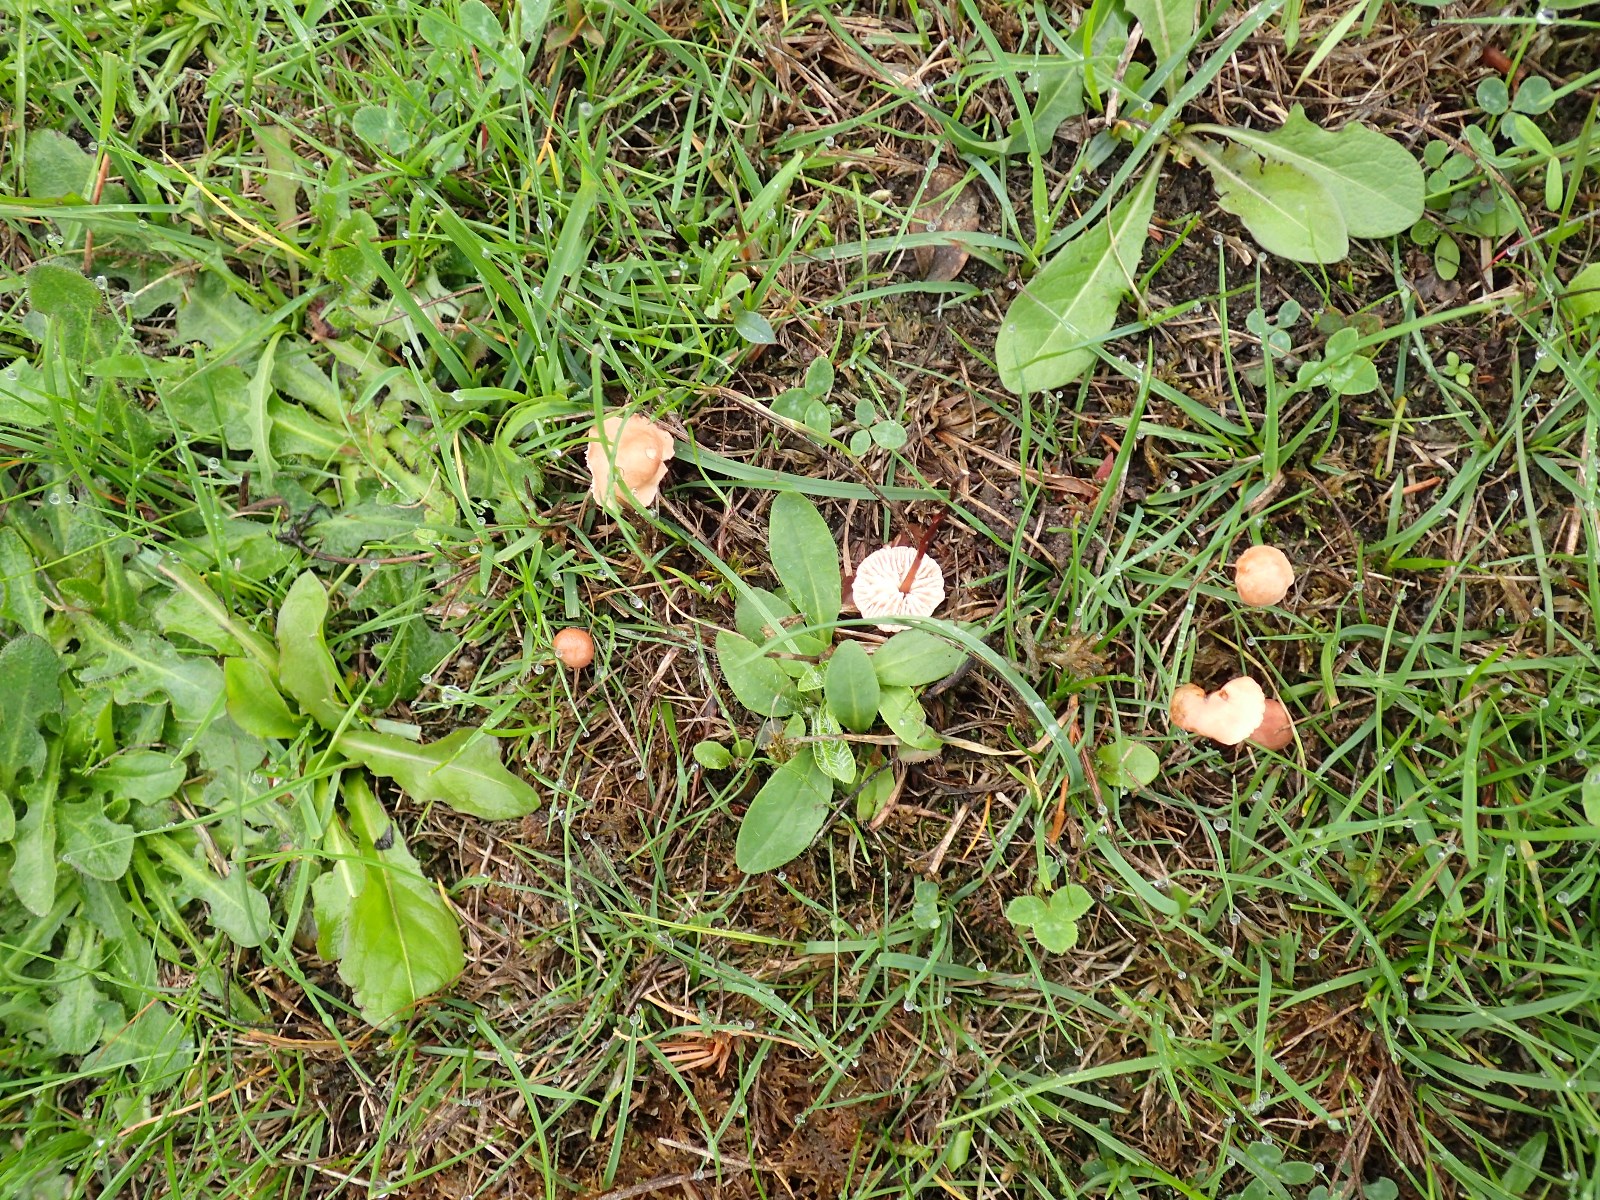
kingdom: Fungi
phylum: Basidiomycota
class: Agaricomycetes
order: Agaricales
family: Omphalotaceae
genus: Mycetinis
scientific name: Mycetinis scorodonius
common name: lille løghat
